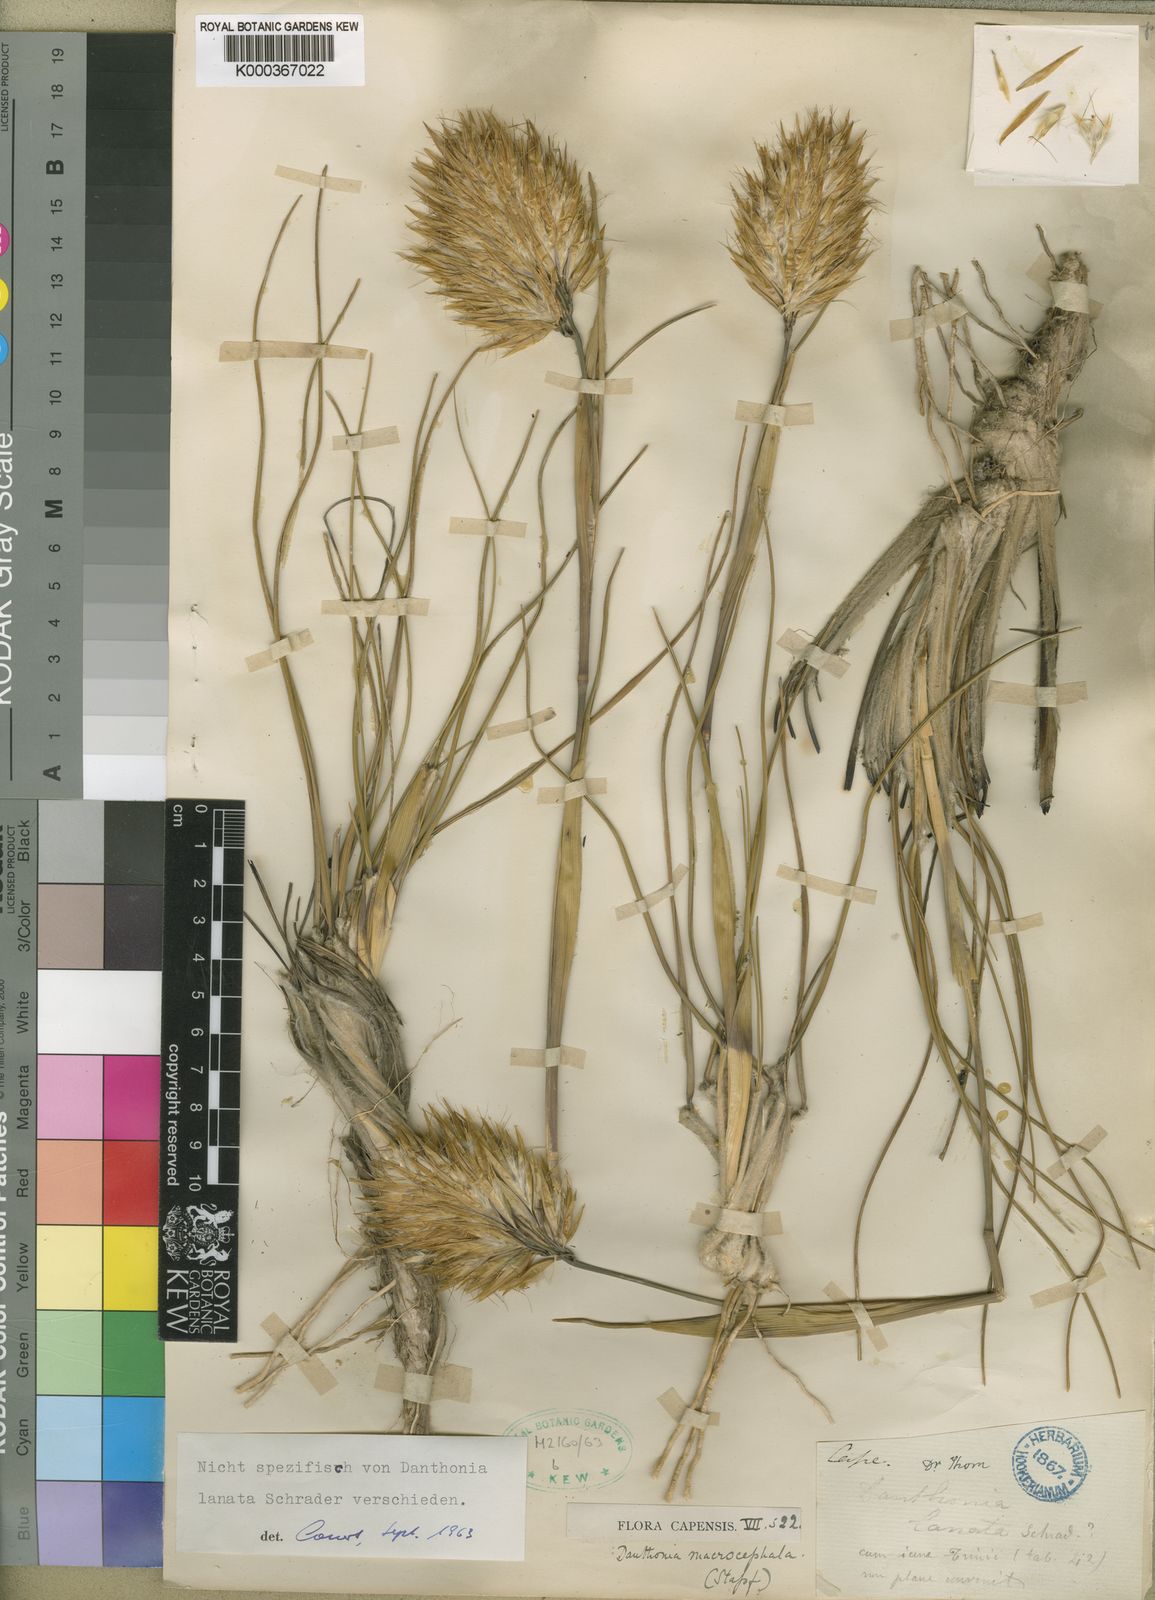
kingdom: Plantae
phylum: Tracheophyta
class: Liliopsida
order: Poales
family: Poaceae
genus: Rytidosperma
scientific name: Rytidosperma
